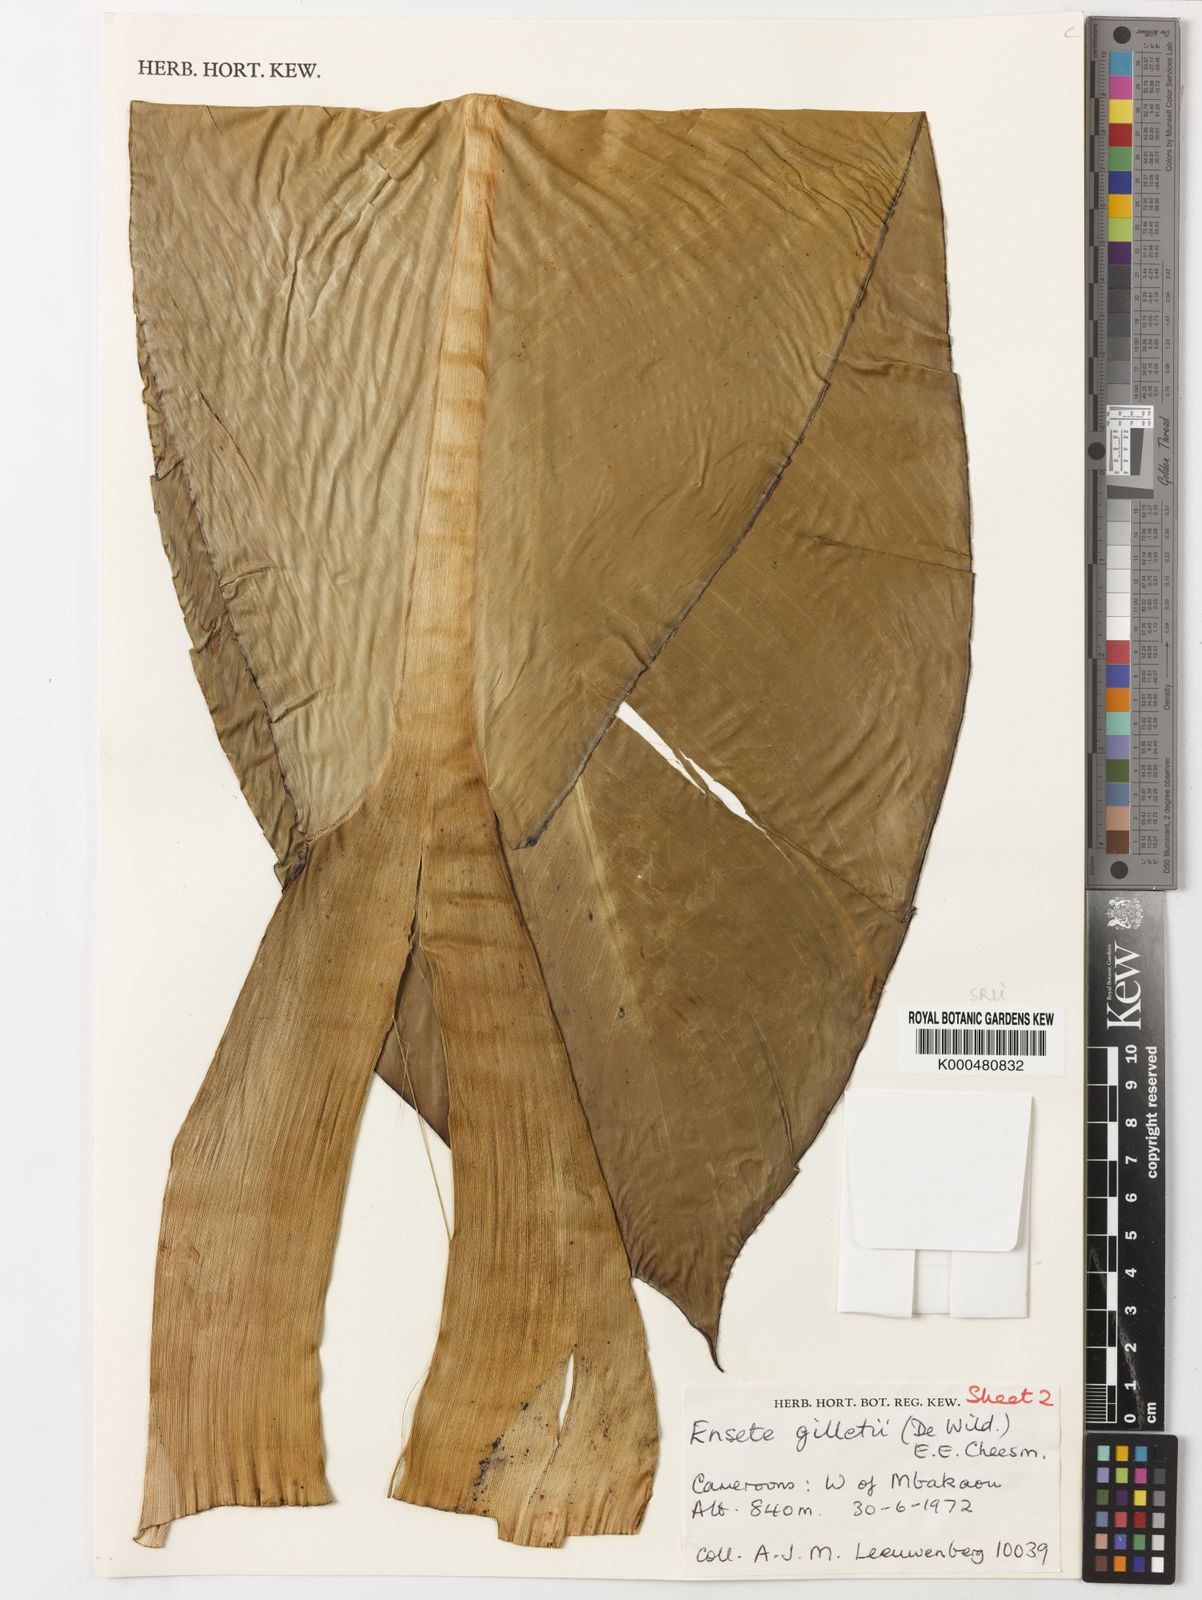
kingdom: Plantae
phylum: Tracheophyta
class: Liliopsida
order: Zingiberales
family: Musaceae
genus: Ensete
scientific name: Ensete livingstonianum
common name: Livingston's banana
